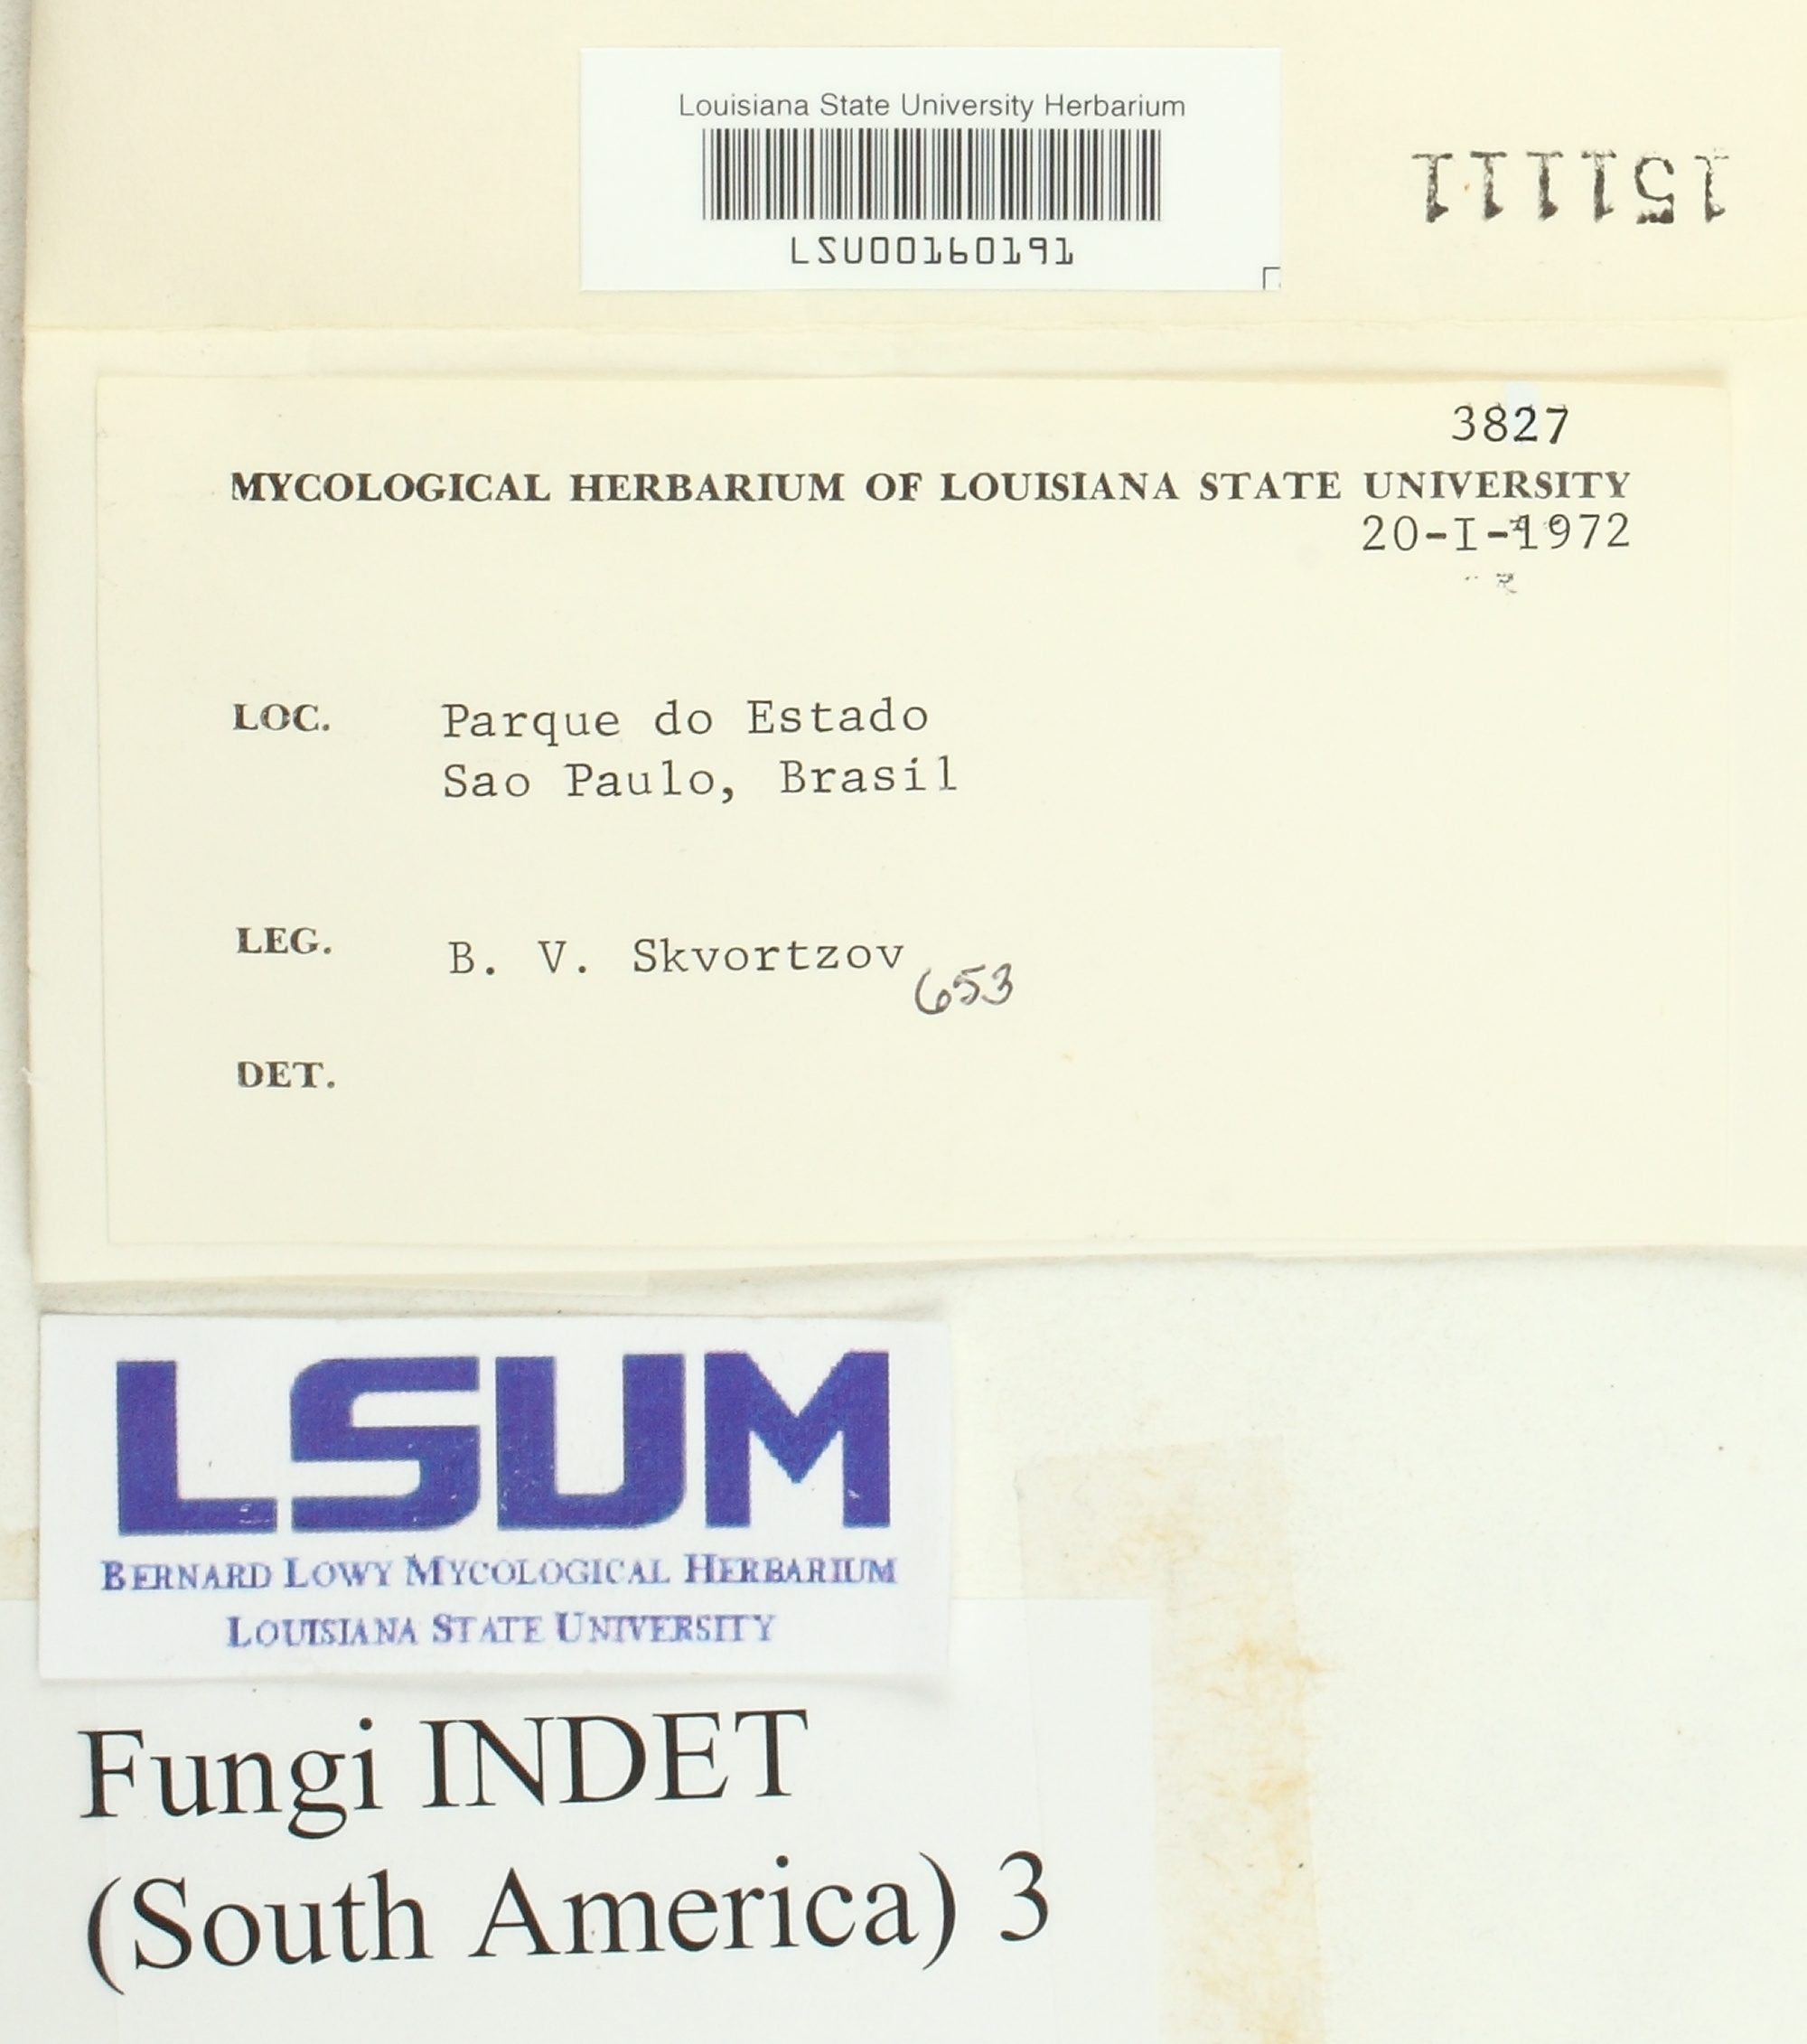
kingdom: Fungi
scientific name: Fungi
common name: Fungi
